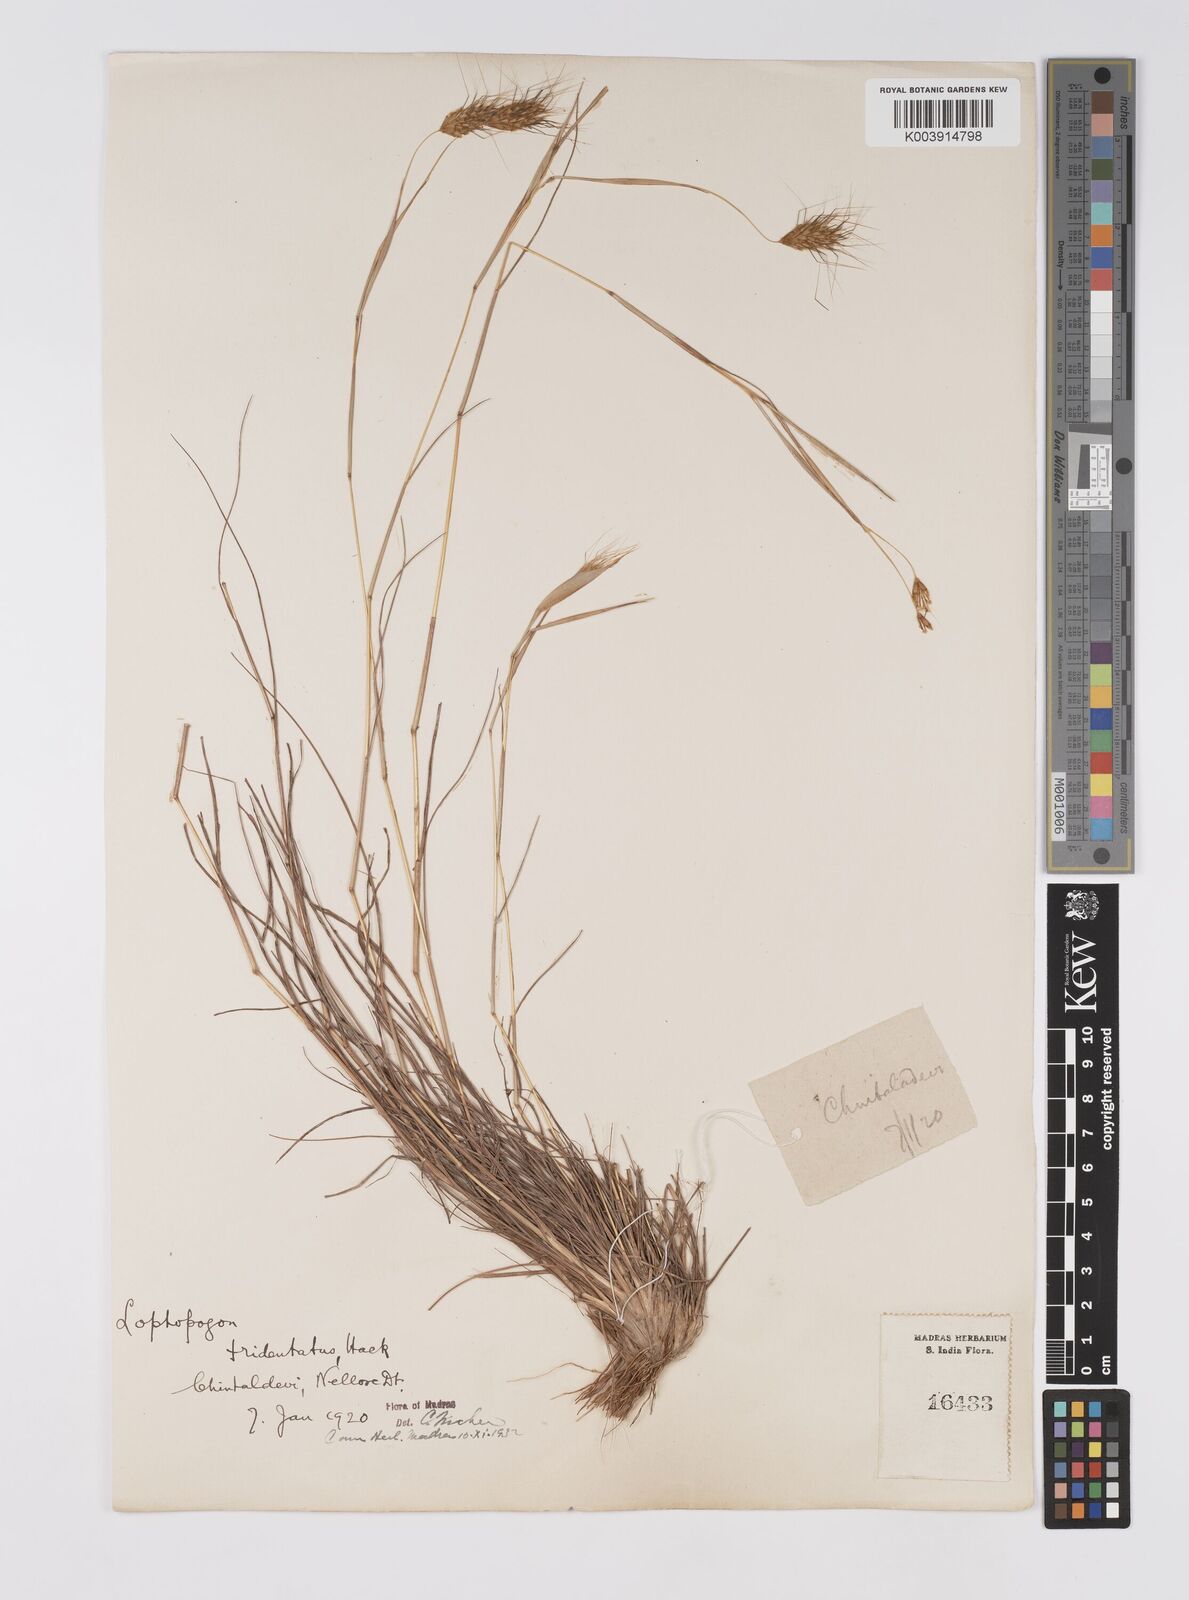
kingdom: Plantae
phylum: Tracheophyta
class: Liliopsida
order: Poales
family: Poaceae
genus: Lophopogon
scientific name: Lophopogon tridentatus
